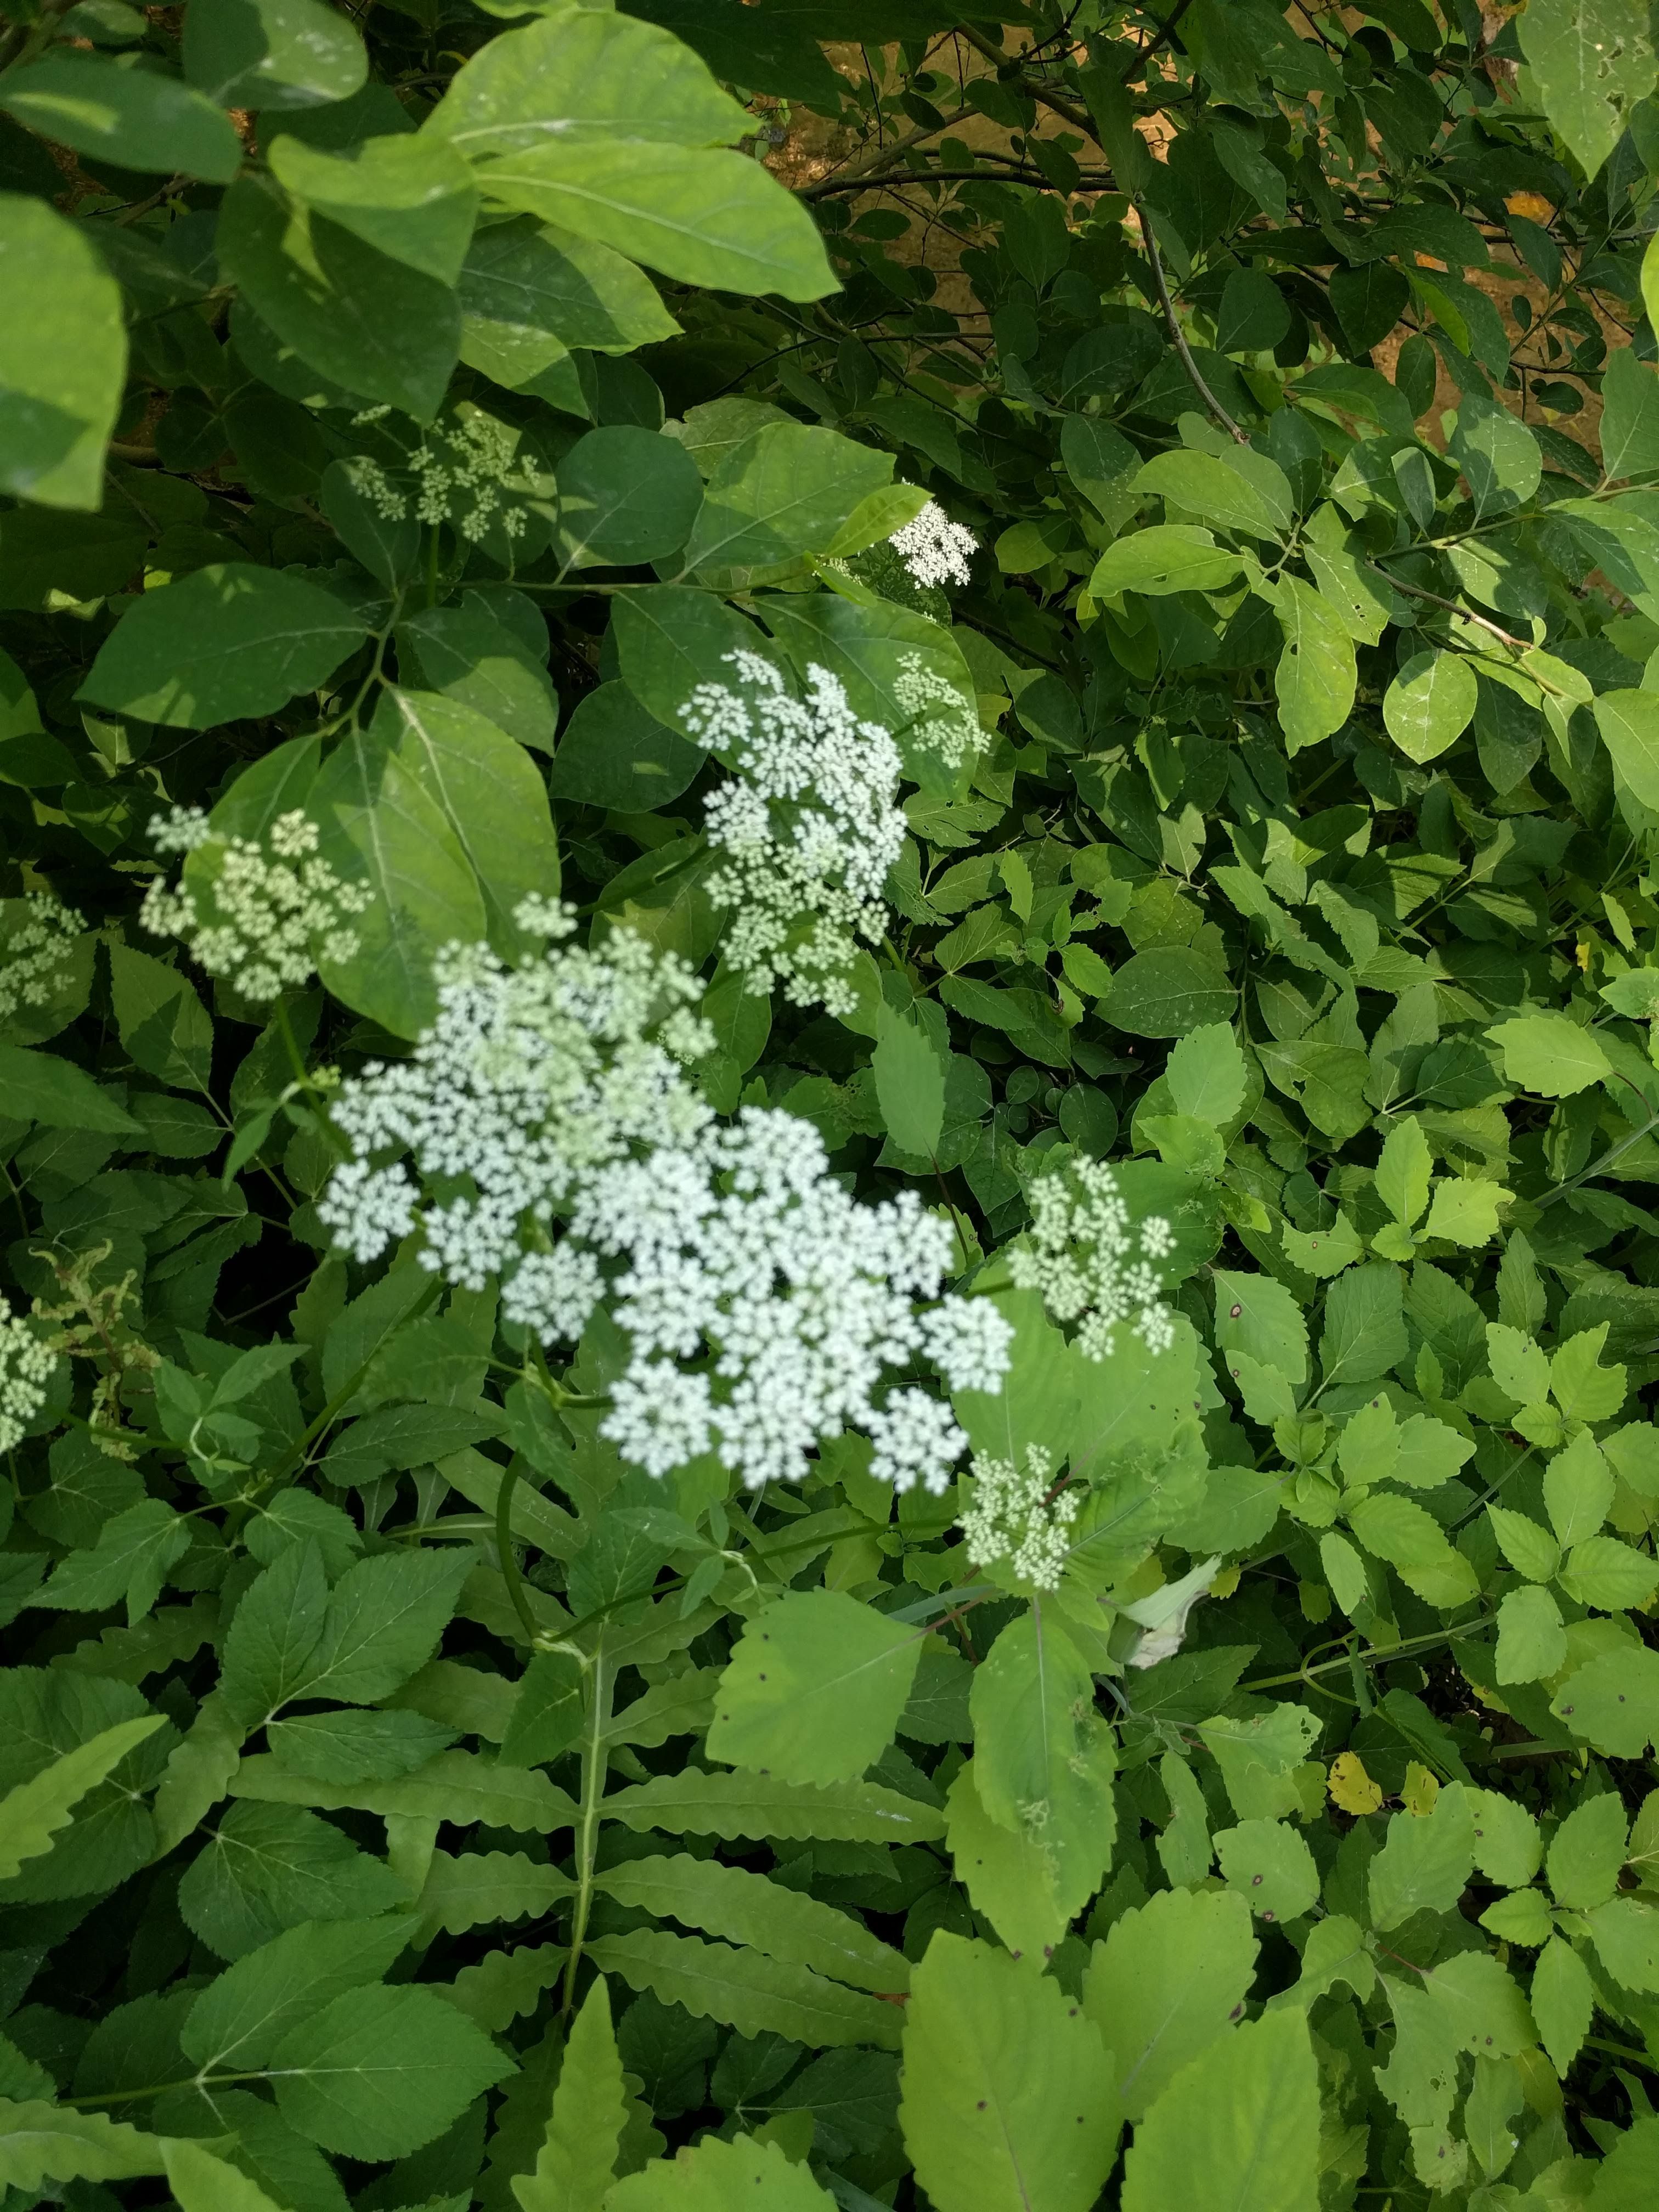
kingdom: Plantae
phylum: Tracheophyta
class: Magnoliopsida
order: Apiales
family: Apiaceae
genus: Aegopodium
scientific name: Aegopodium podagraria
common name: Goutweed
